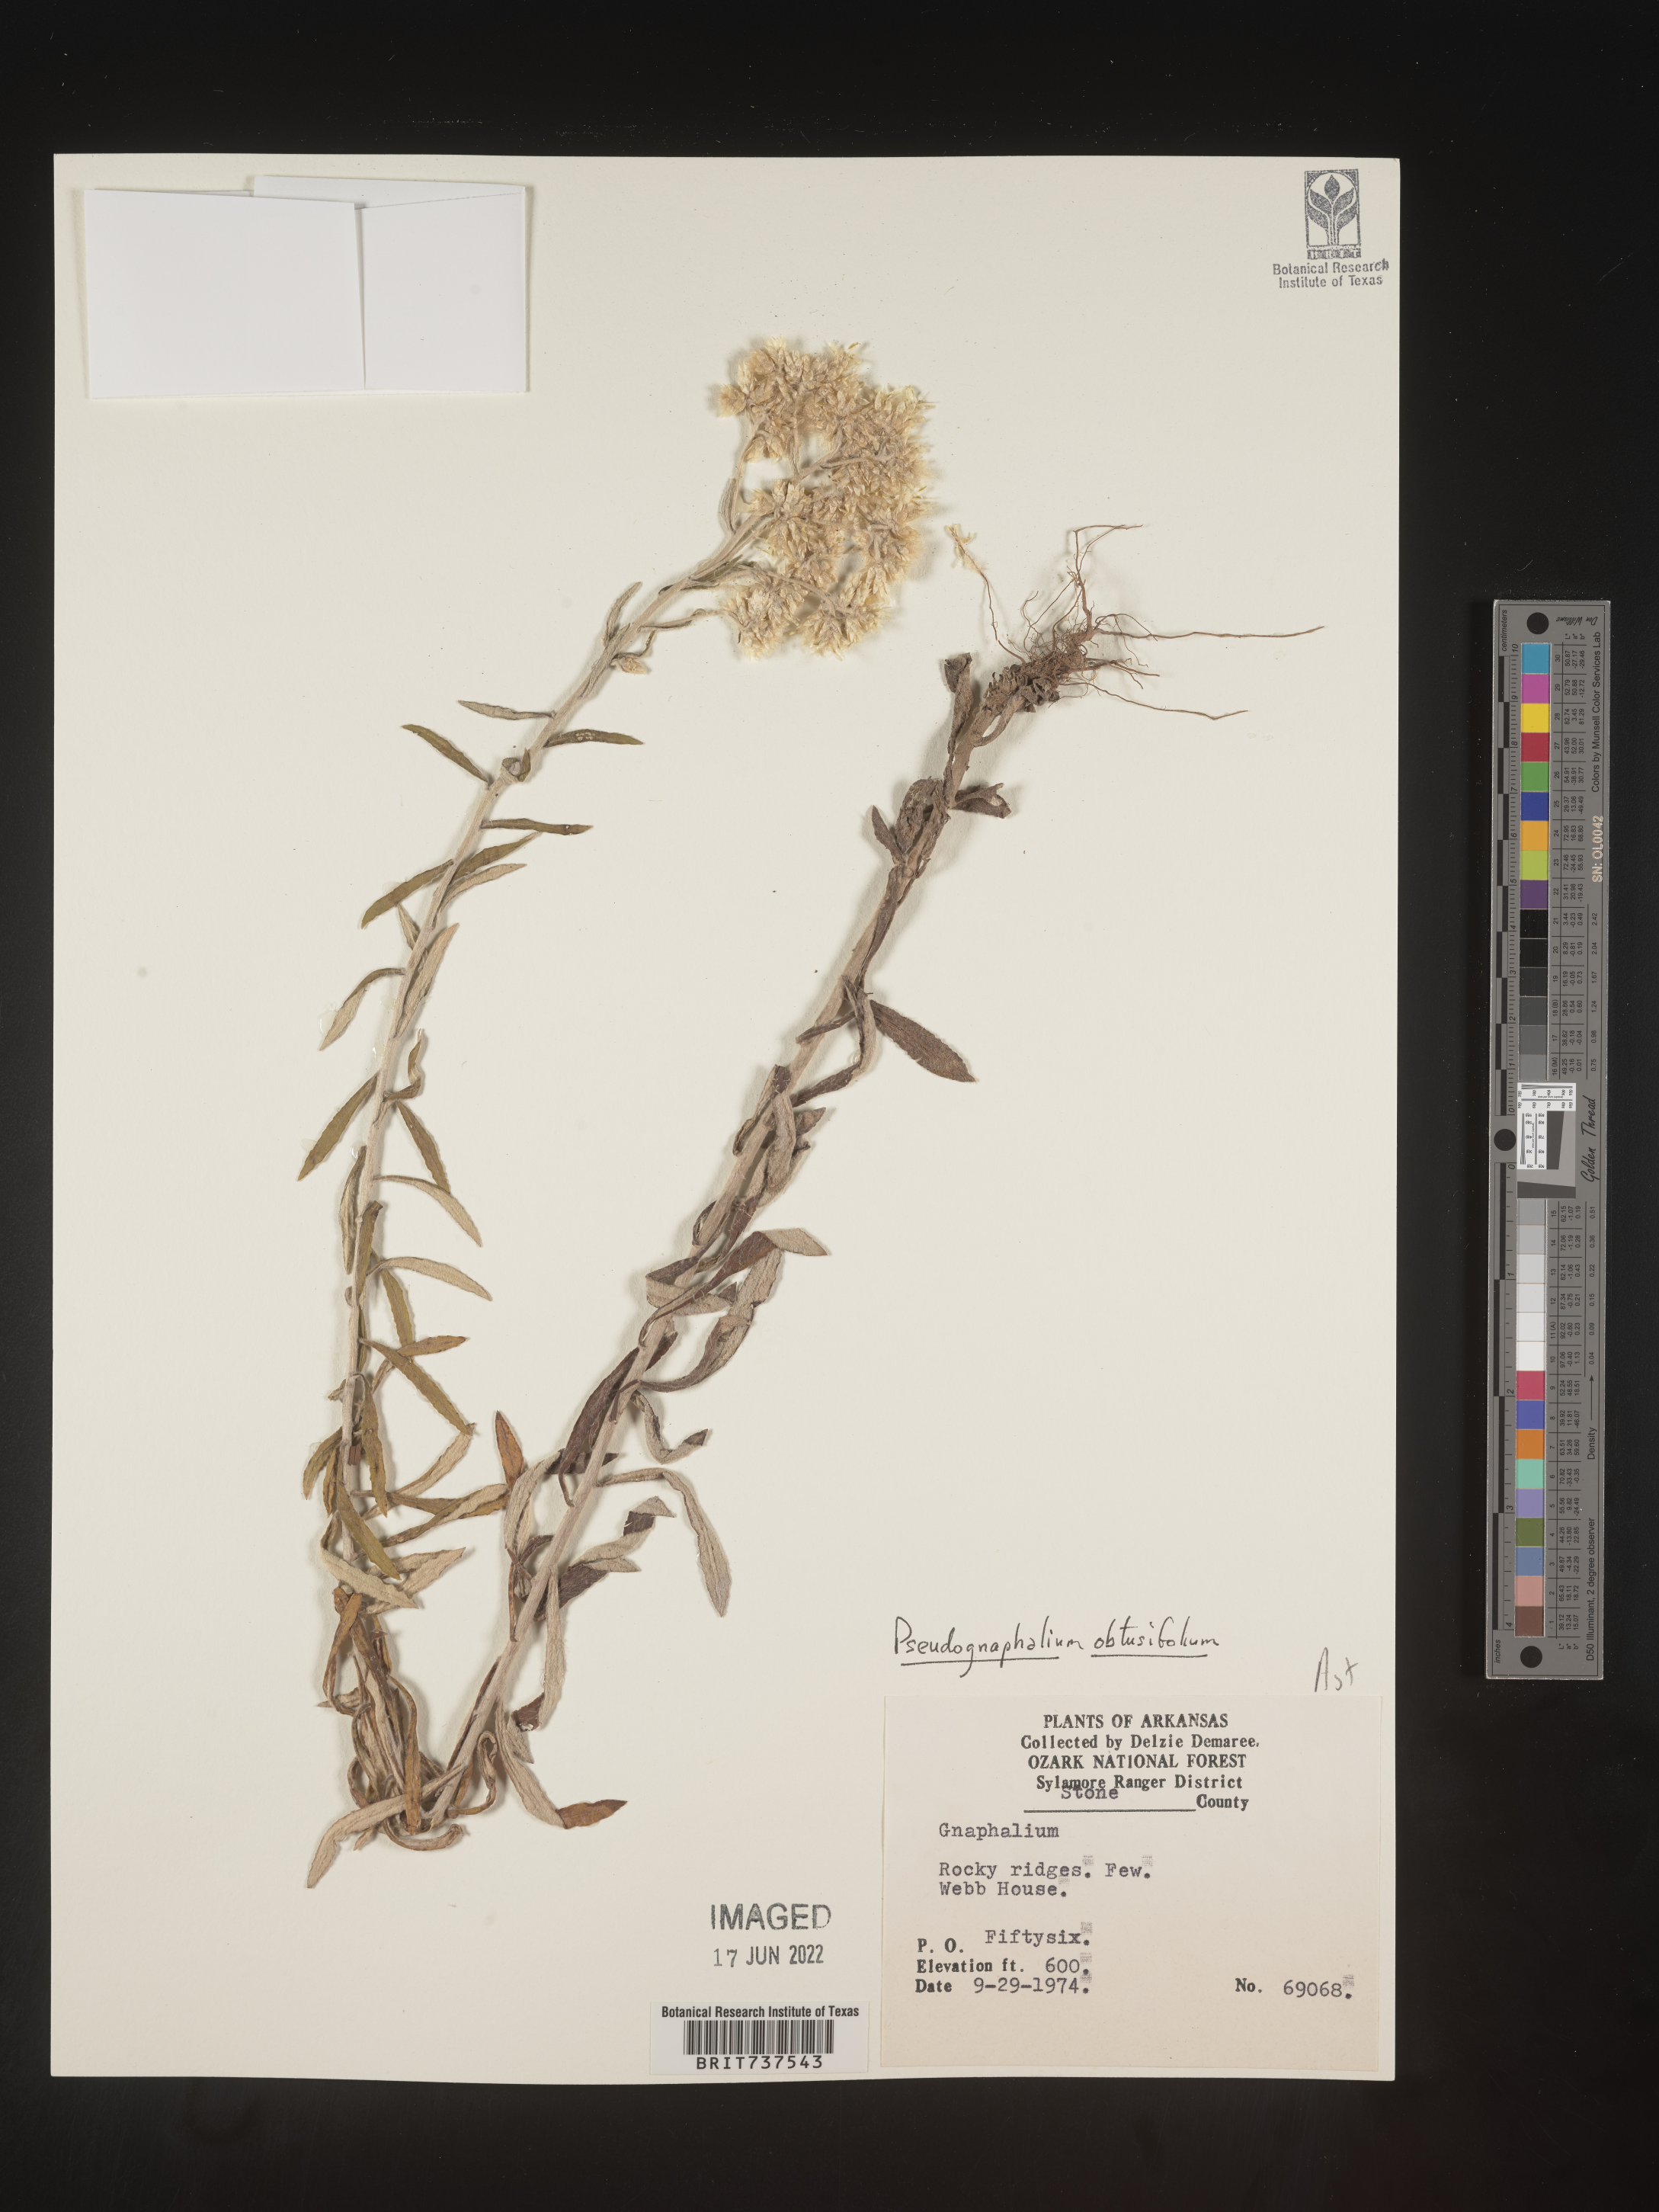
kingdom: Plantae
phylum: Tracheophyta
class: Magnoliopsida
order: Asterales
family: Asteraceae
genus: Pseudognaphalium
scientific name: Pseudognaphalium obtusifolium
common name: Eastern rabbit-tobacco
